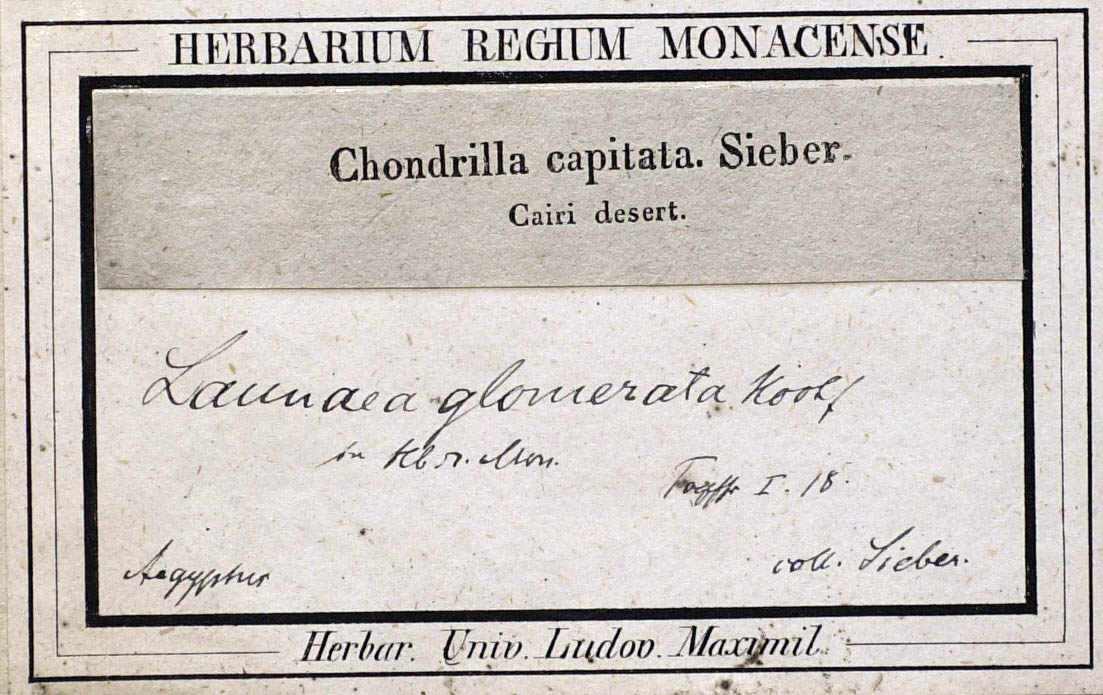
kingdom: Plantae
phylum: Tracheophyta
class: Magnoliopsida
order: Asterales
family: Asteraceae
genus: Launaea
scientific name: Launaea capitata
